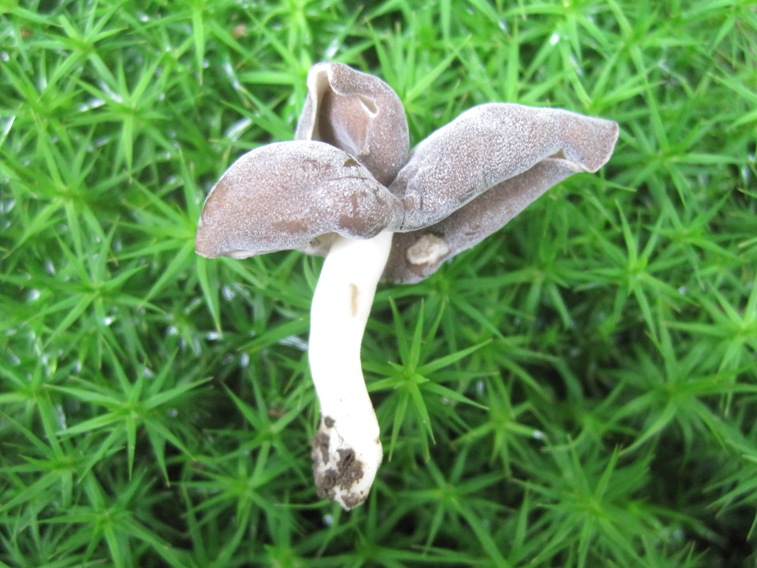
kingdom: Fungi
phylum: Ascomycota
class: Pezizomycetes
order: Pezizales
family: Helvellaceae
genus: Helvella
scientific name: Helvella elastica
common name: elastik-foldhat
